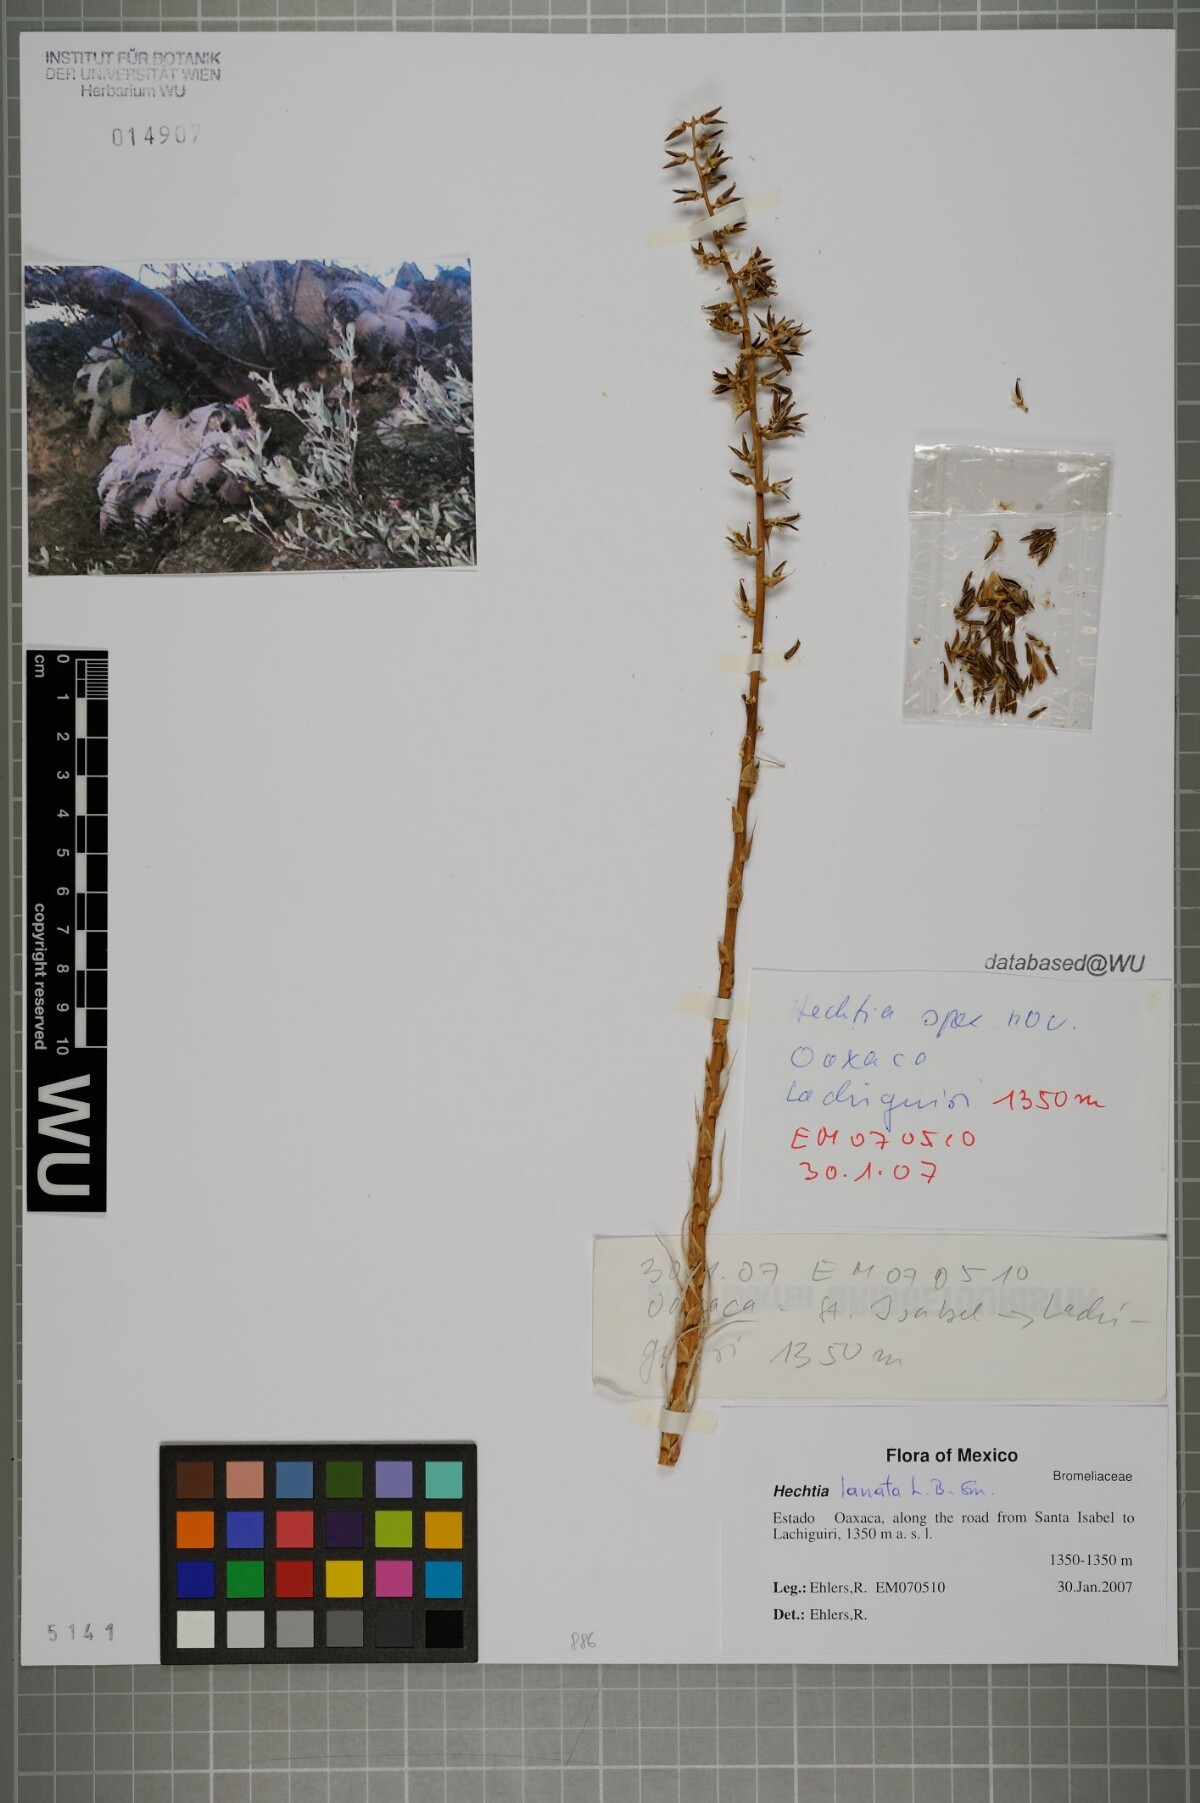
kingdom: Plantae
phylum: Tracheophyta
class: Liliopsida
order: Poales
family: Bromeliaceae
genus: Hechtia
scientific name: Hechtia lanata
